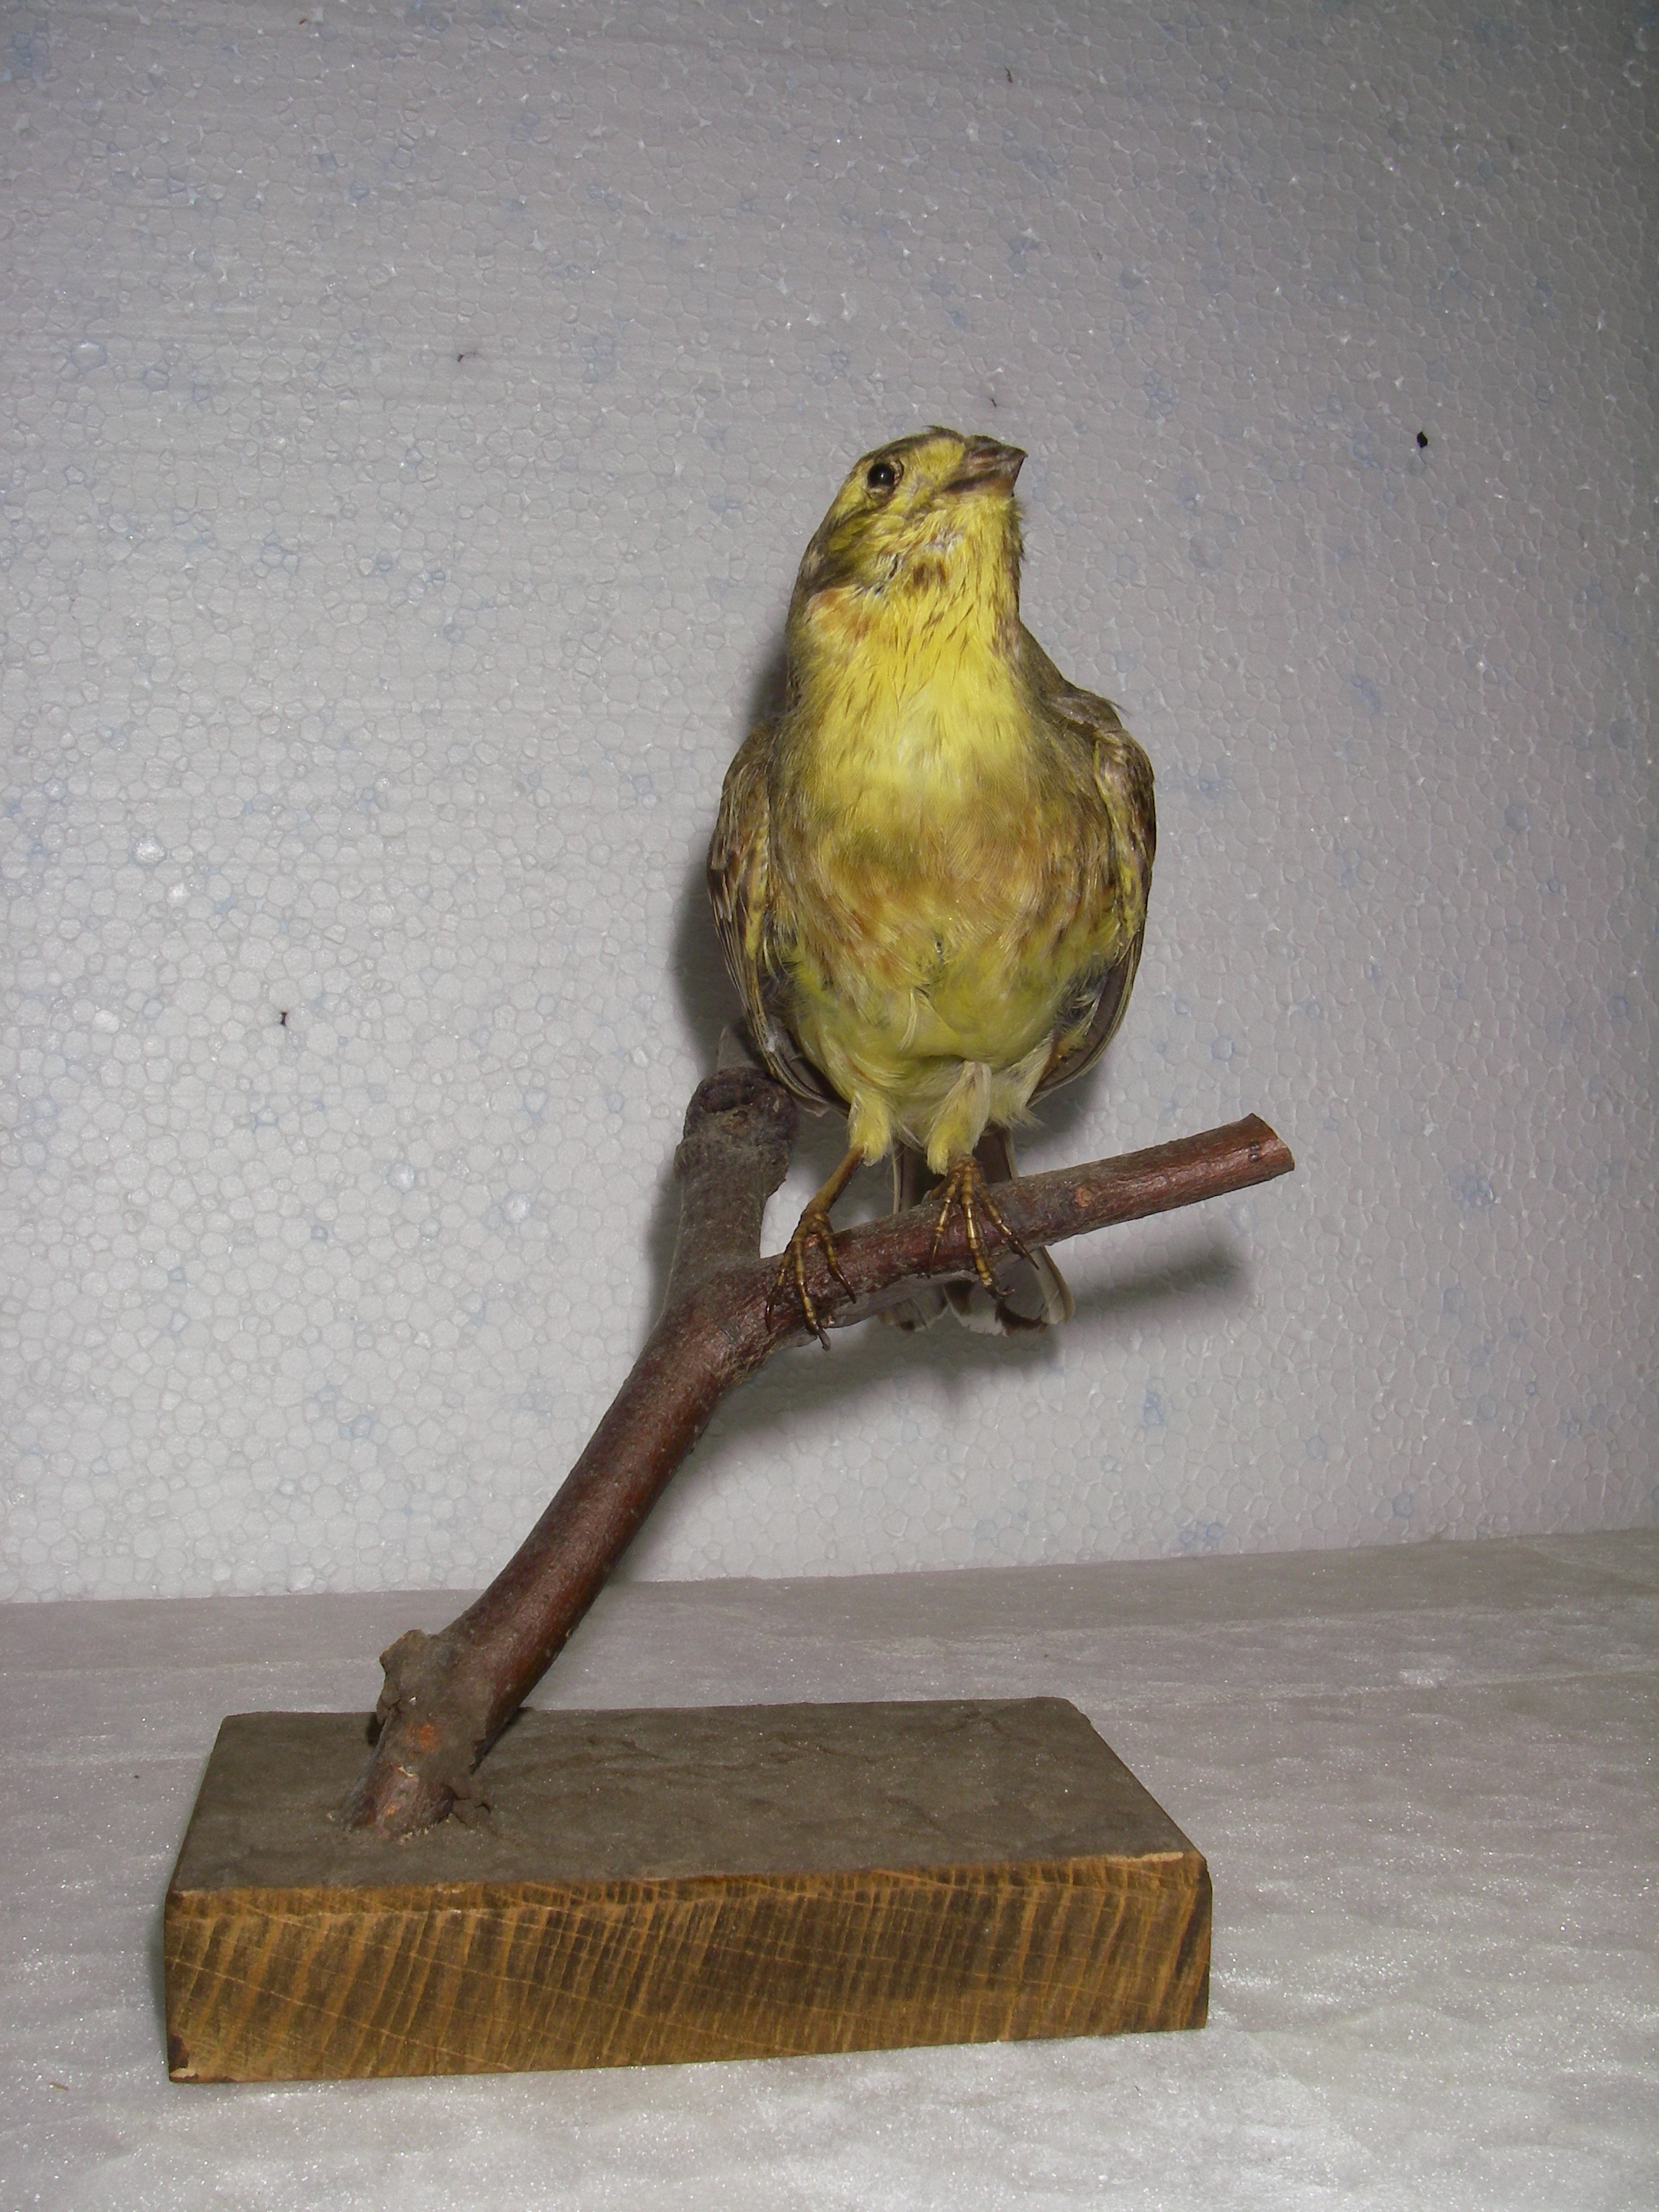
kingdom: Animalia
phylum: Chordata
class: Aves
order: Passeriformes
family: Emberizidae
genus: Emberiza
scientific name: Emberiza citrinella
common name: Yellowhammer
